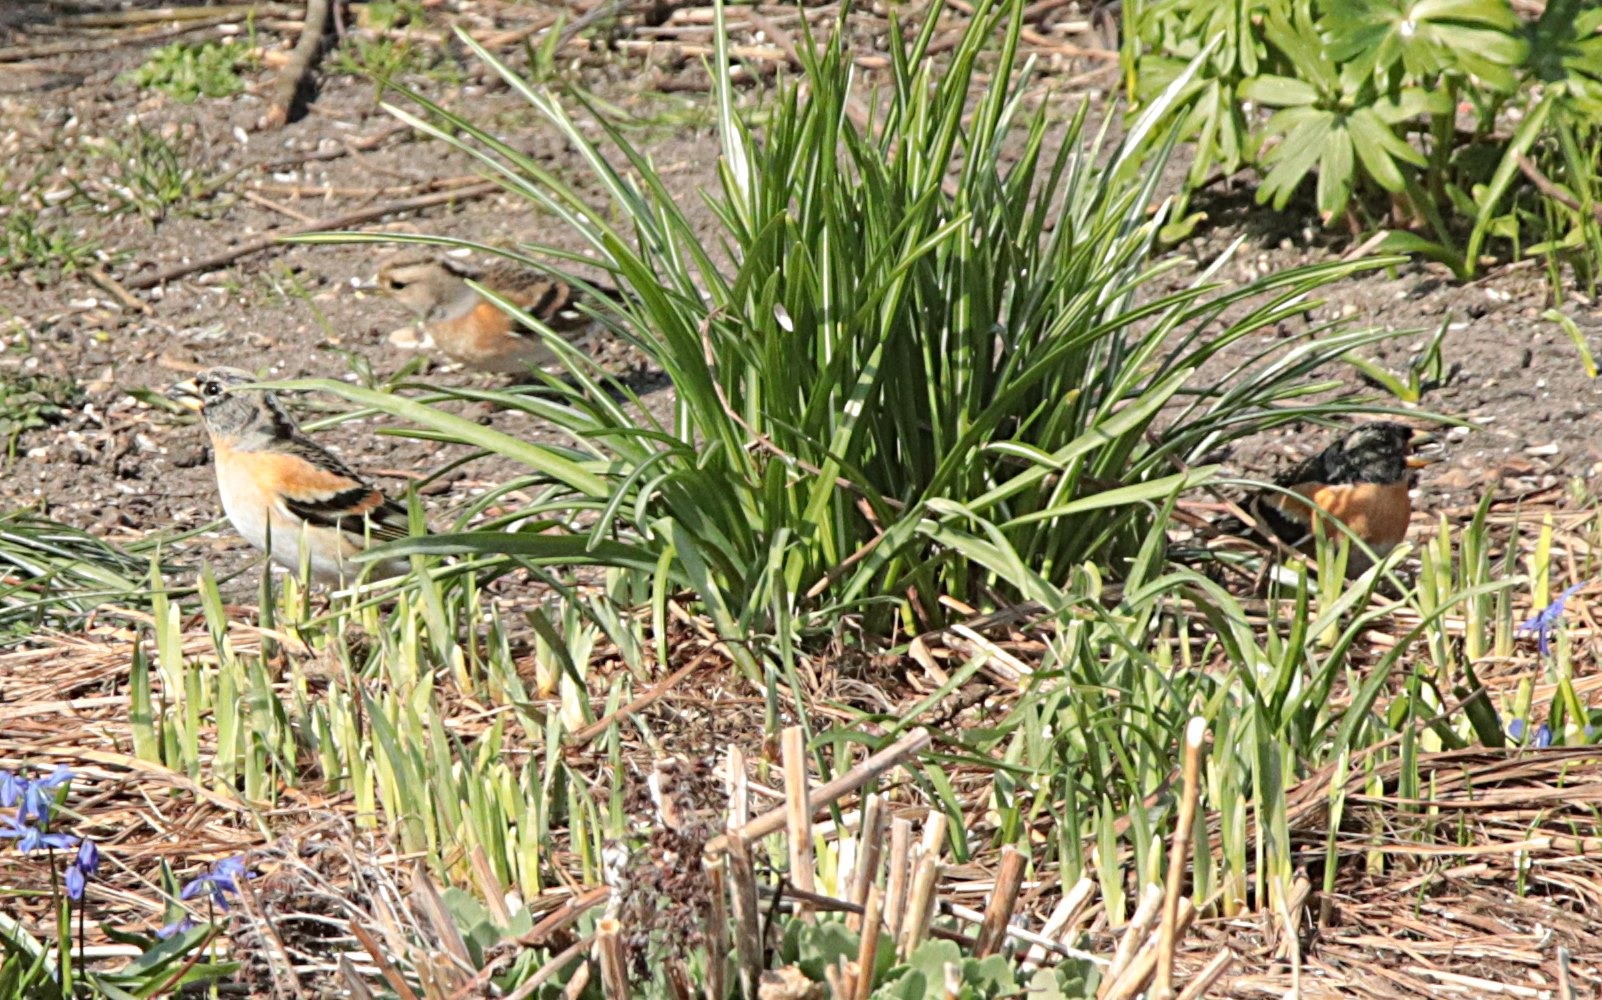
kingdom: Animalia
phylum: Chordata
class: Aves
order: Passeriformes
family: Fringillidae
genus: Fringilla
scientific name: Fringilla montifringilla
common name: Kvækerfinke
